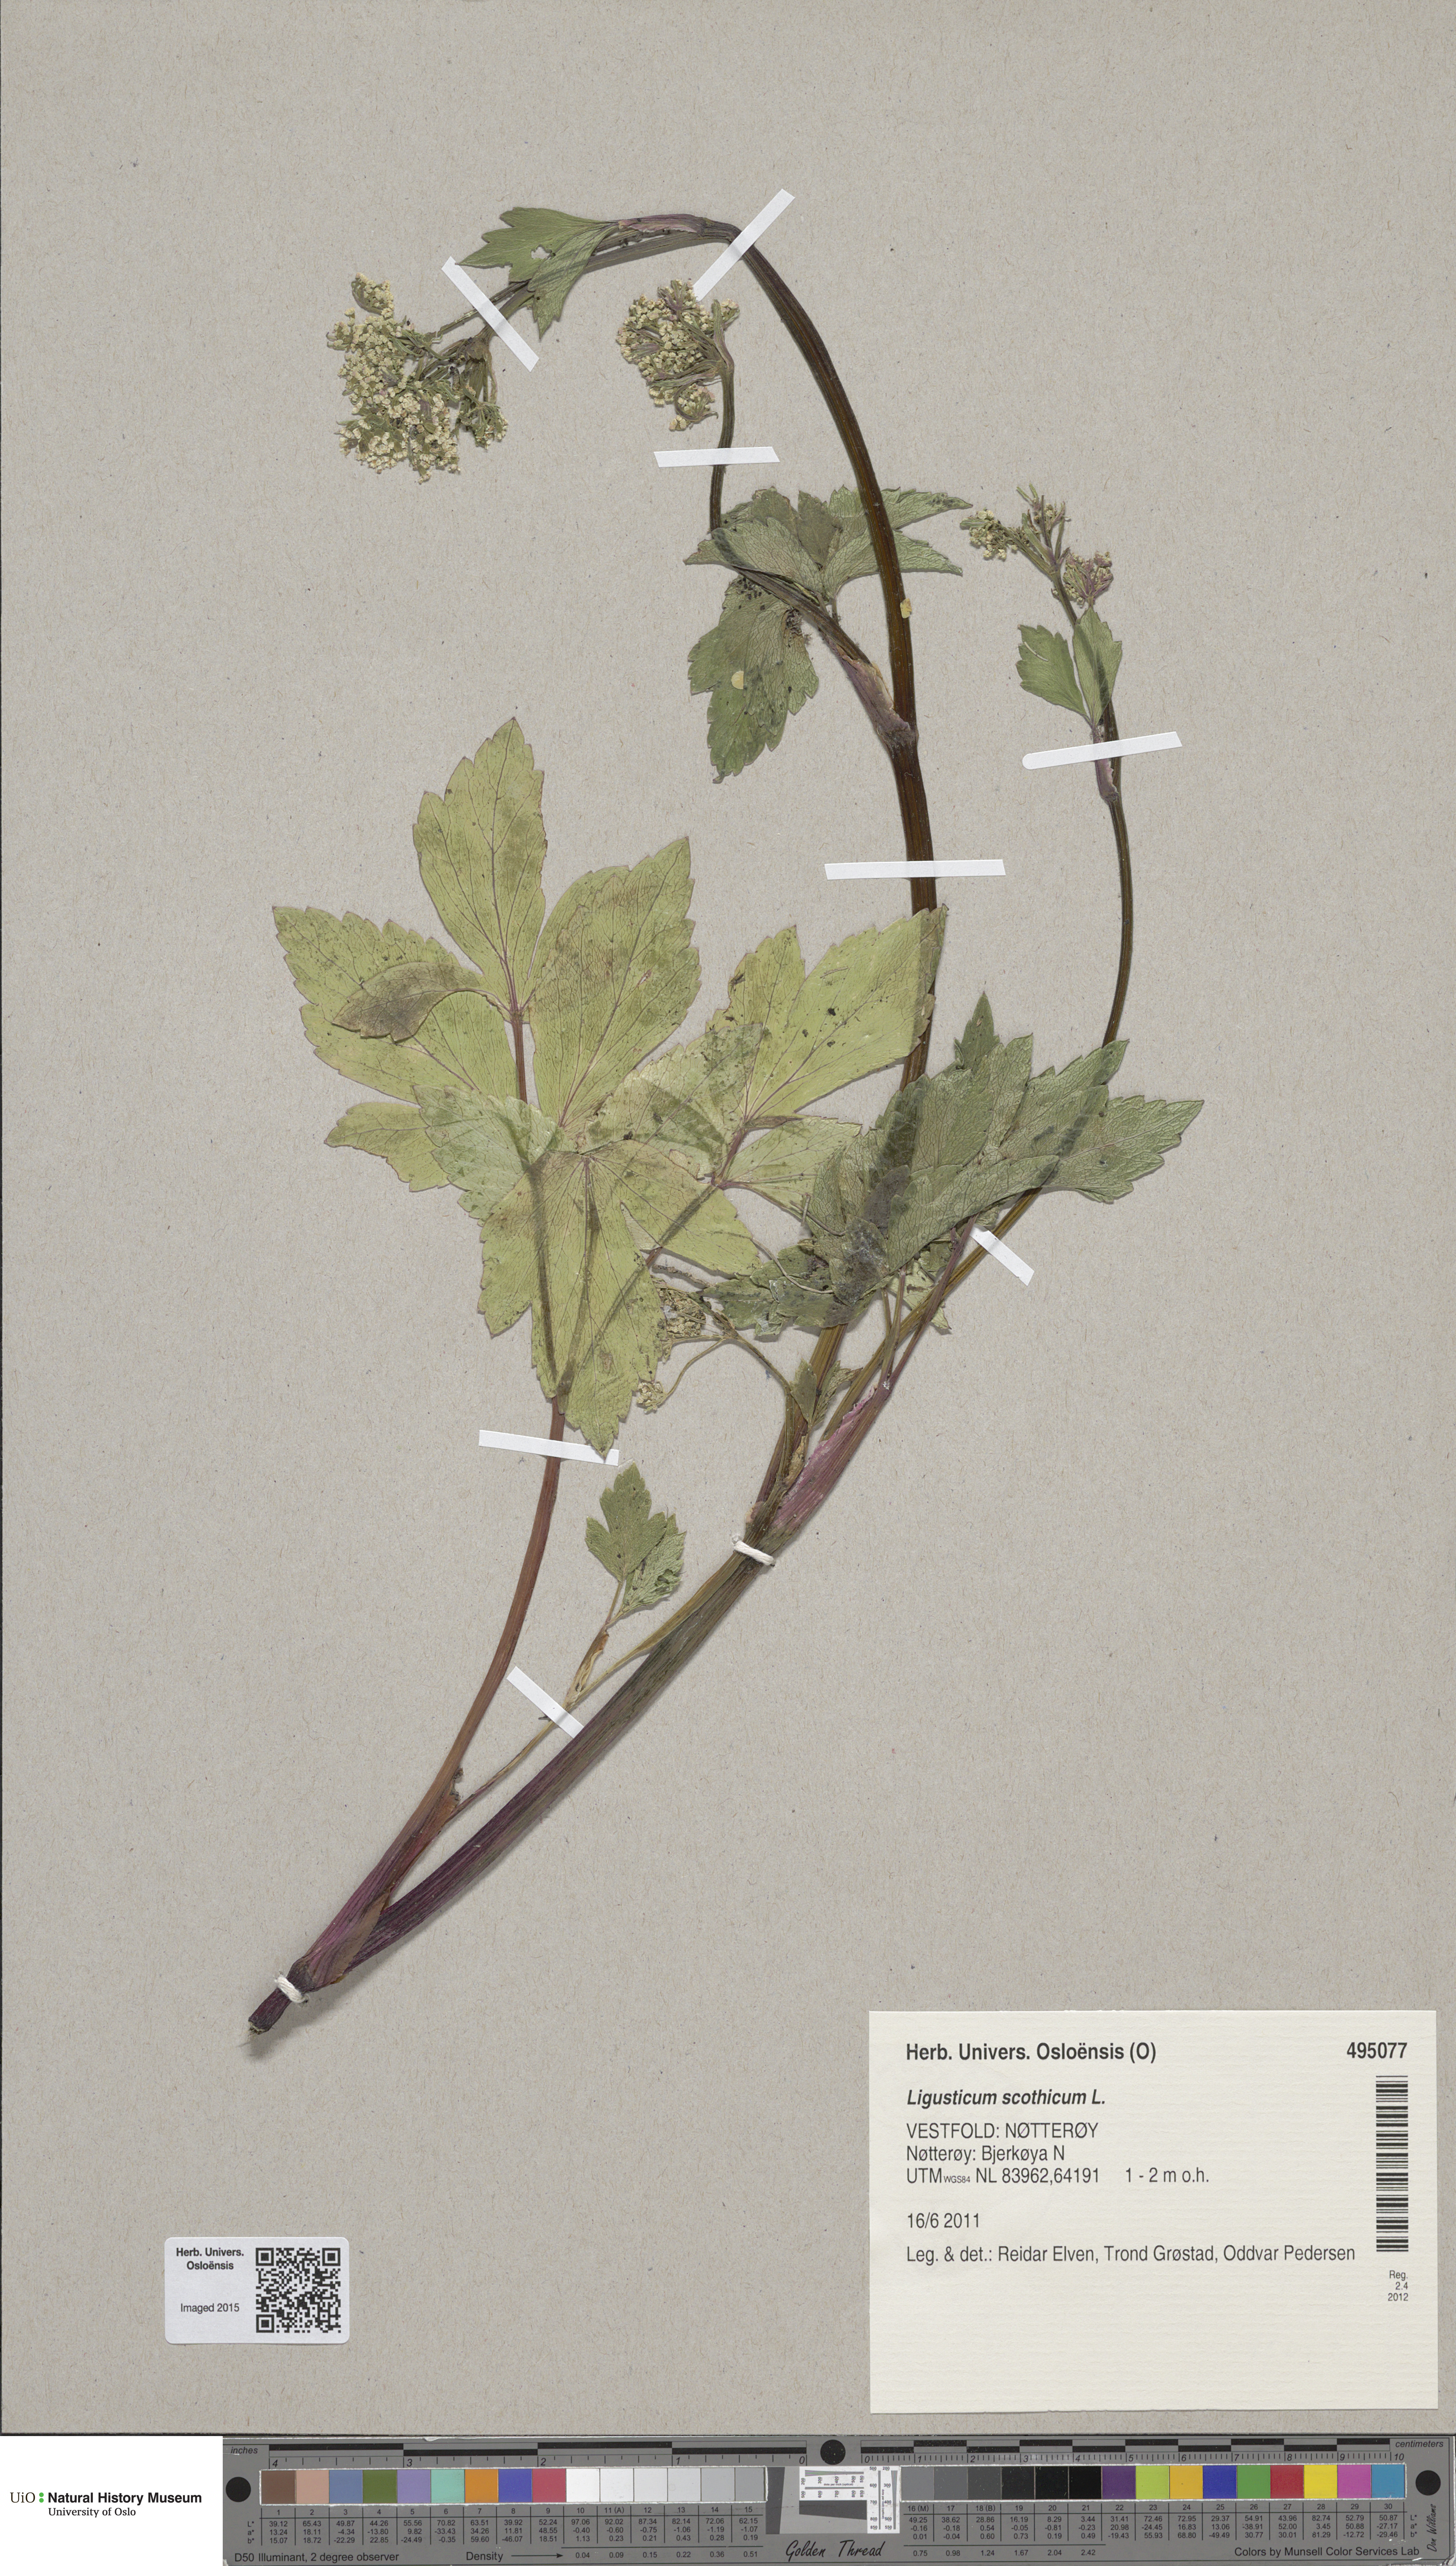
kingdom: Plantae
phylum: Tracheophyta
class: Magnoliopsida
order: Apiales
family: Apiaceae
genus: Ligusticum
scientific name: Ligusticum scothicum
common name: Beach lovage
